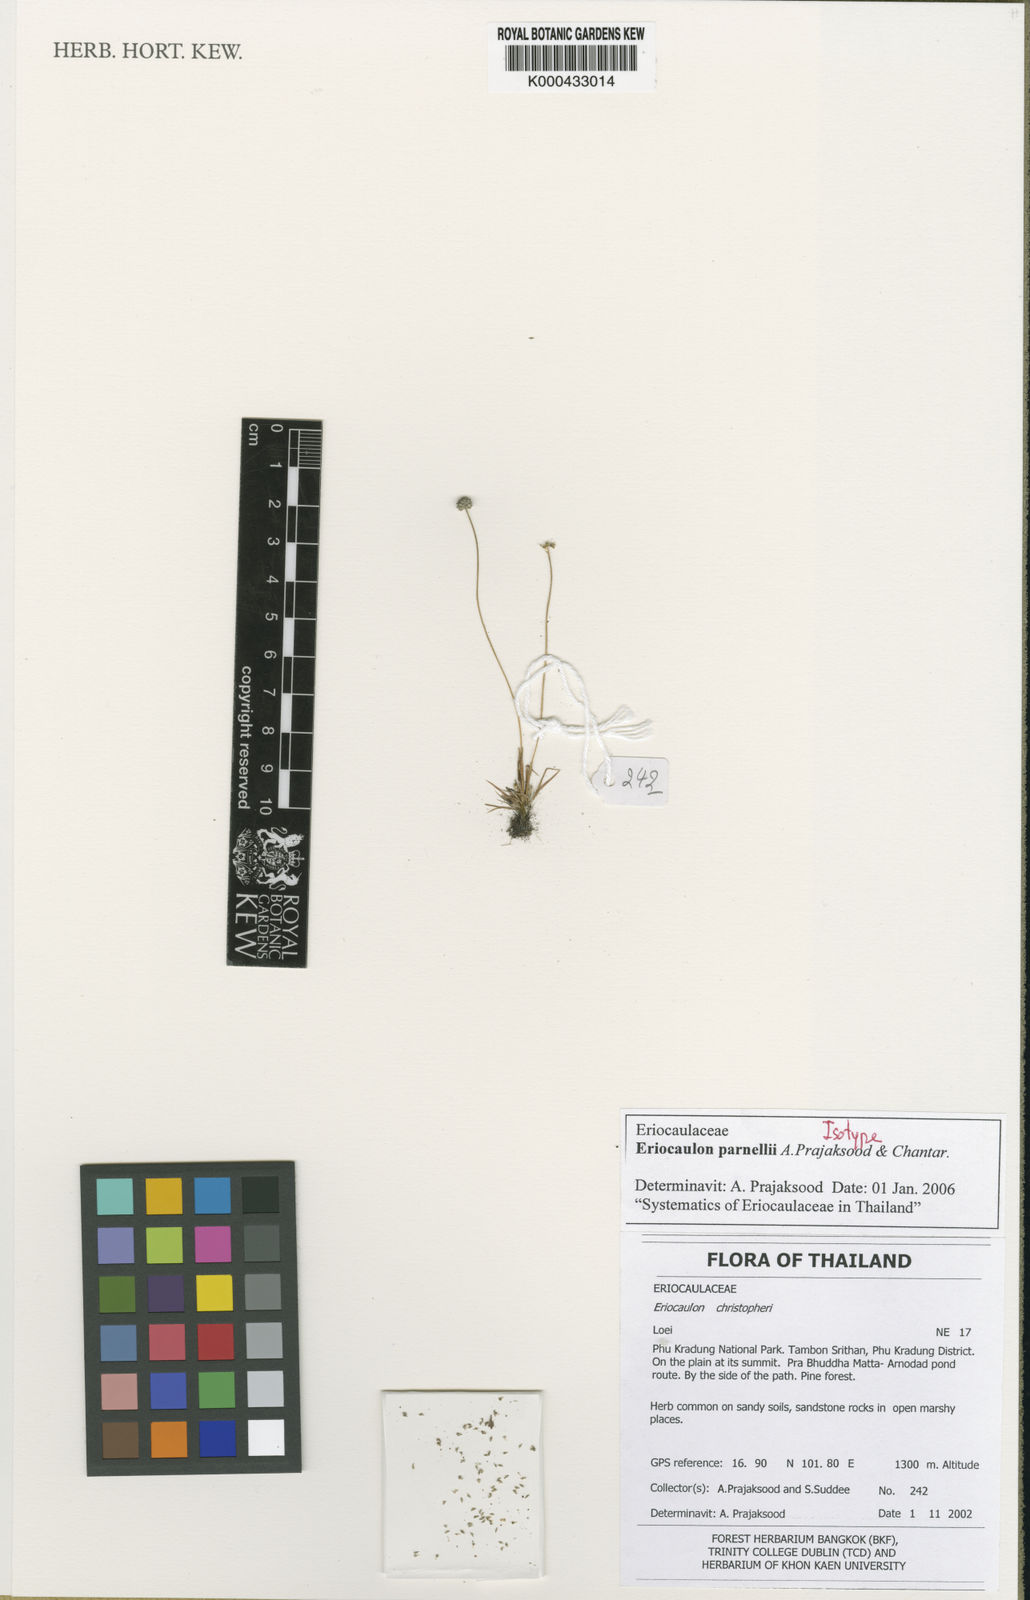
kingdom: Plantae
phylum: Tracheophyta
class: Liliopsida
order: Poales
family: Eriocaulaceae
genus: Eriocaulon
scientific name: Eriocaulon parnellii
